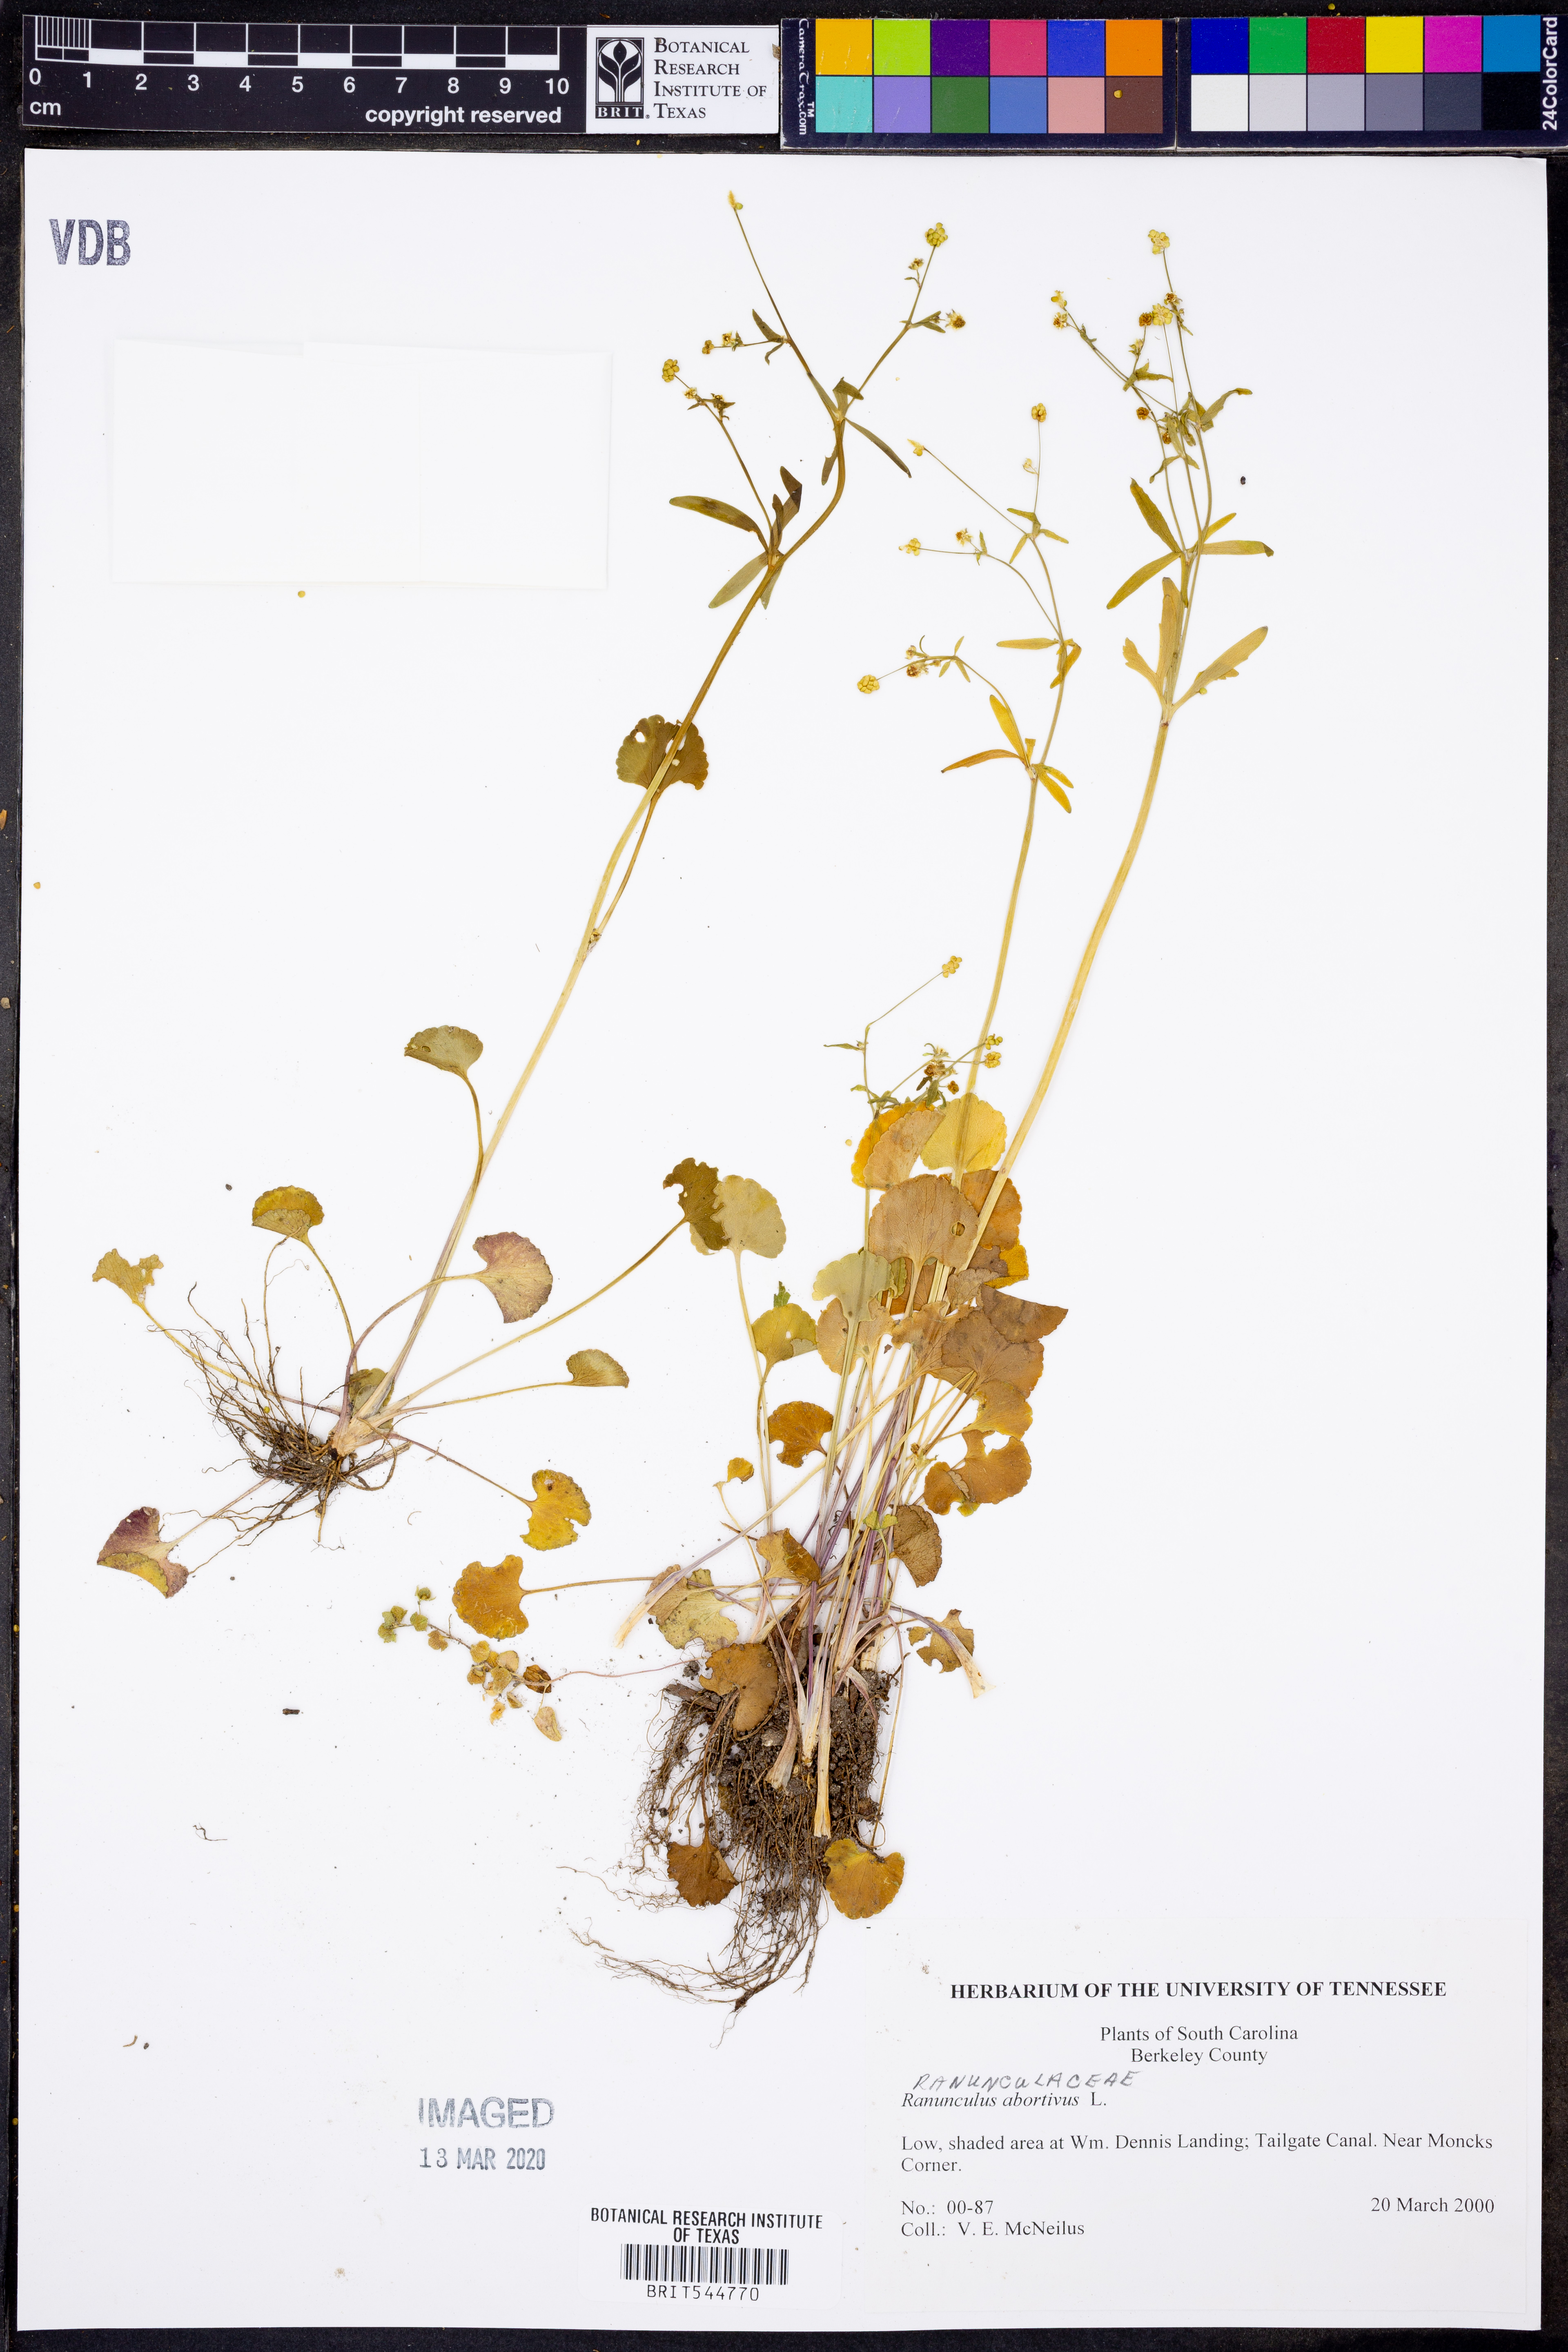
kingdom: Plantae
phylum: Tracheophyta
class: Magnoliopsida
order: Ranunculales
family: Ranunculaceae
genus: Ranunculus
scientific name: Ranunculus abortivus
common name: Early wood buttercup
